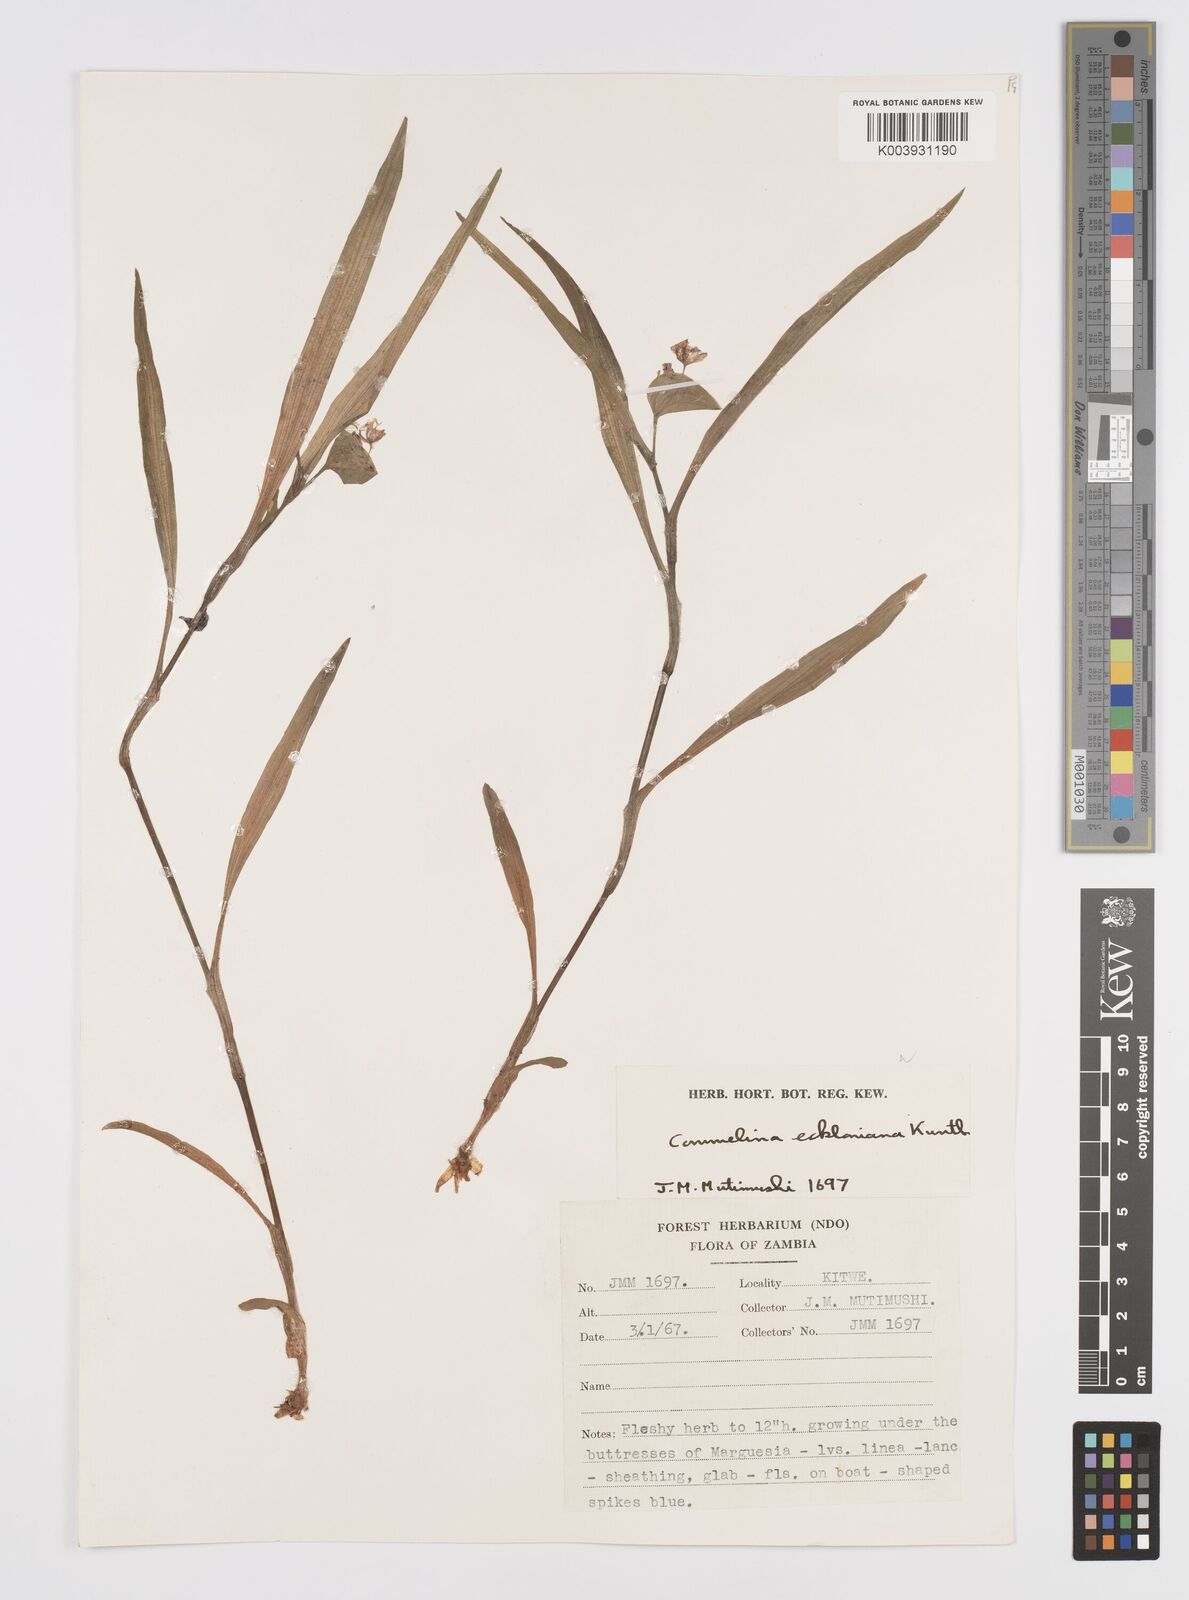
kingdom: Plantae
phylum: Tracheophyta
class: Liliopsida
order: Commelinales
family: Commelinaceae
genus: Commelina
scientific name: Commelina eckloniana
